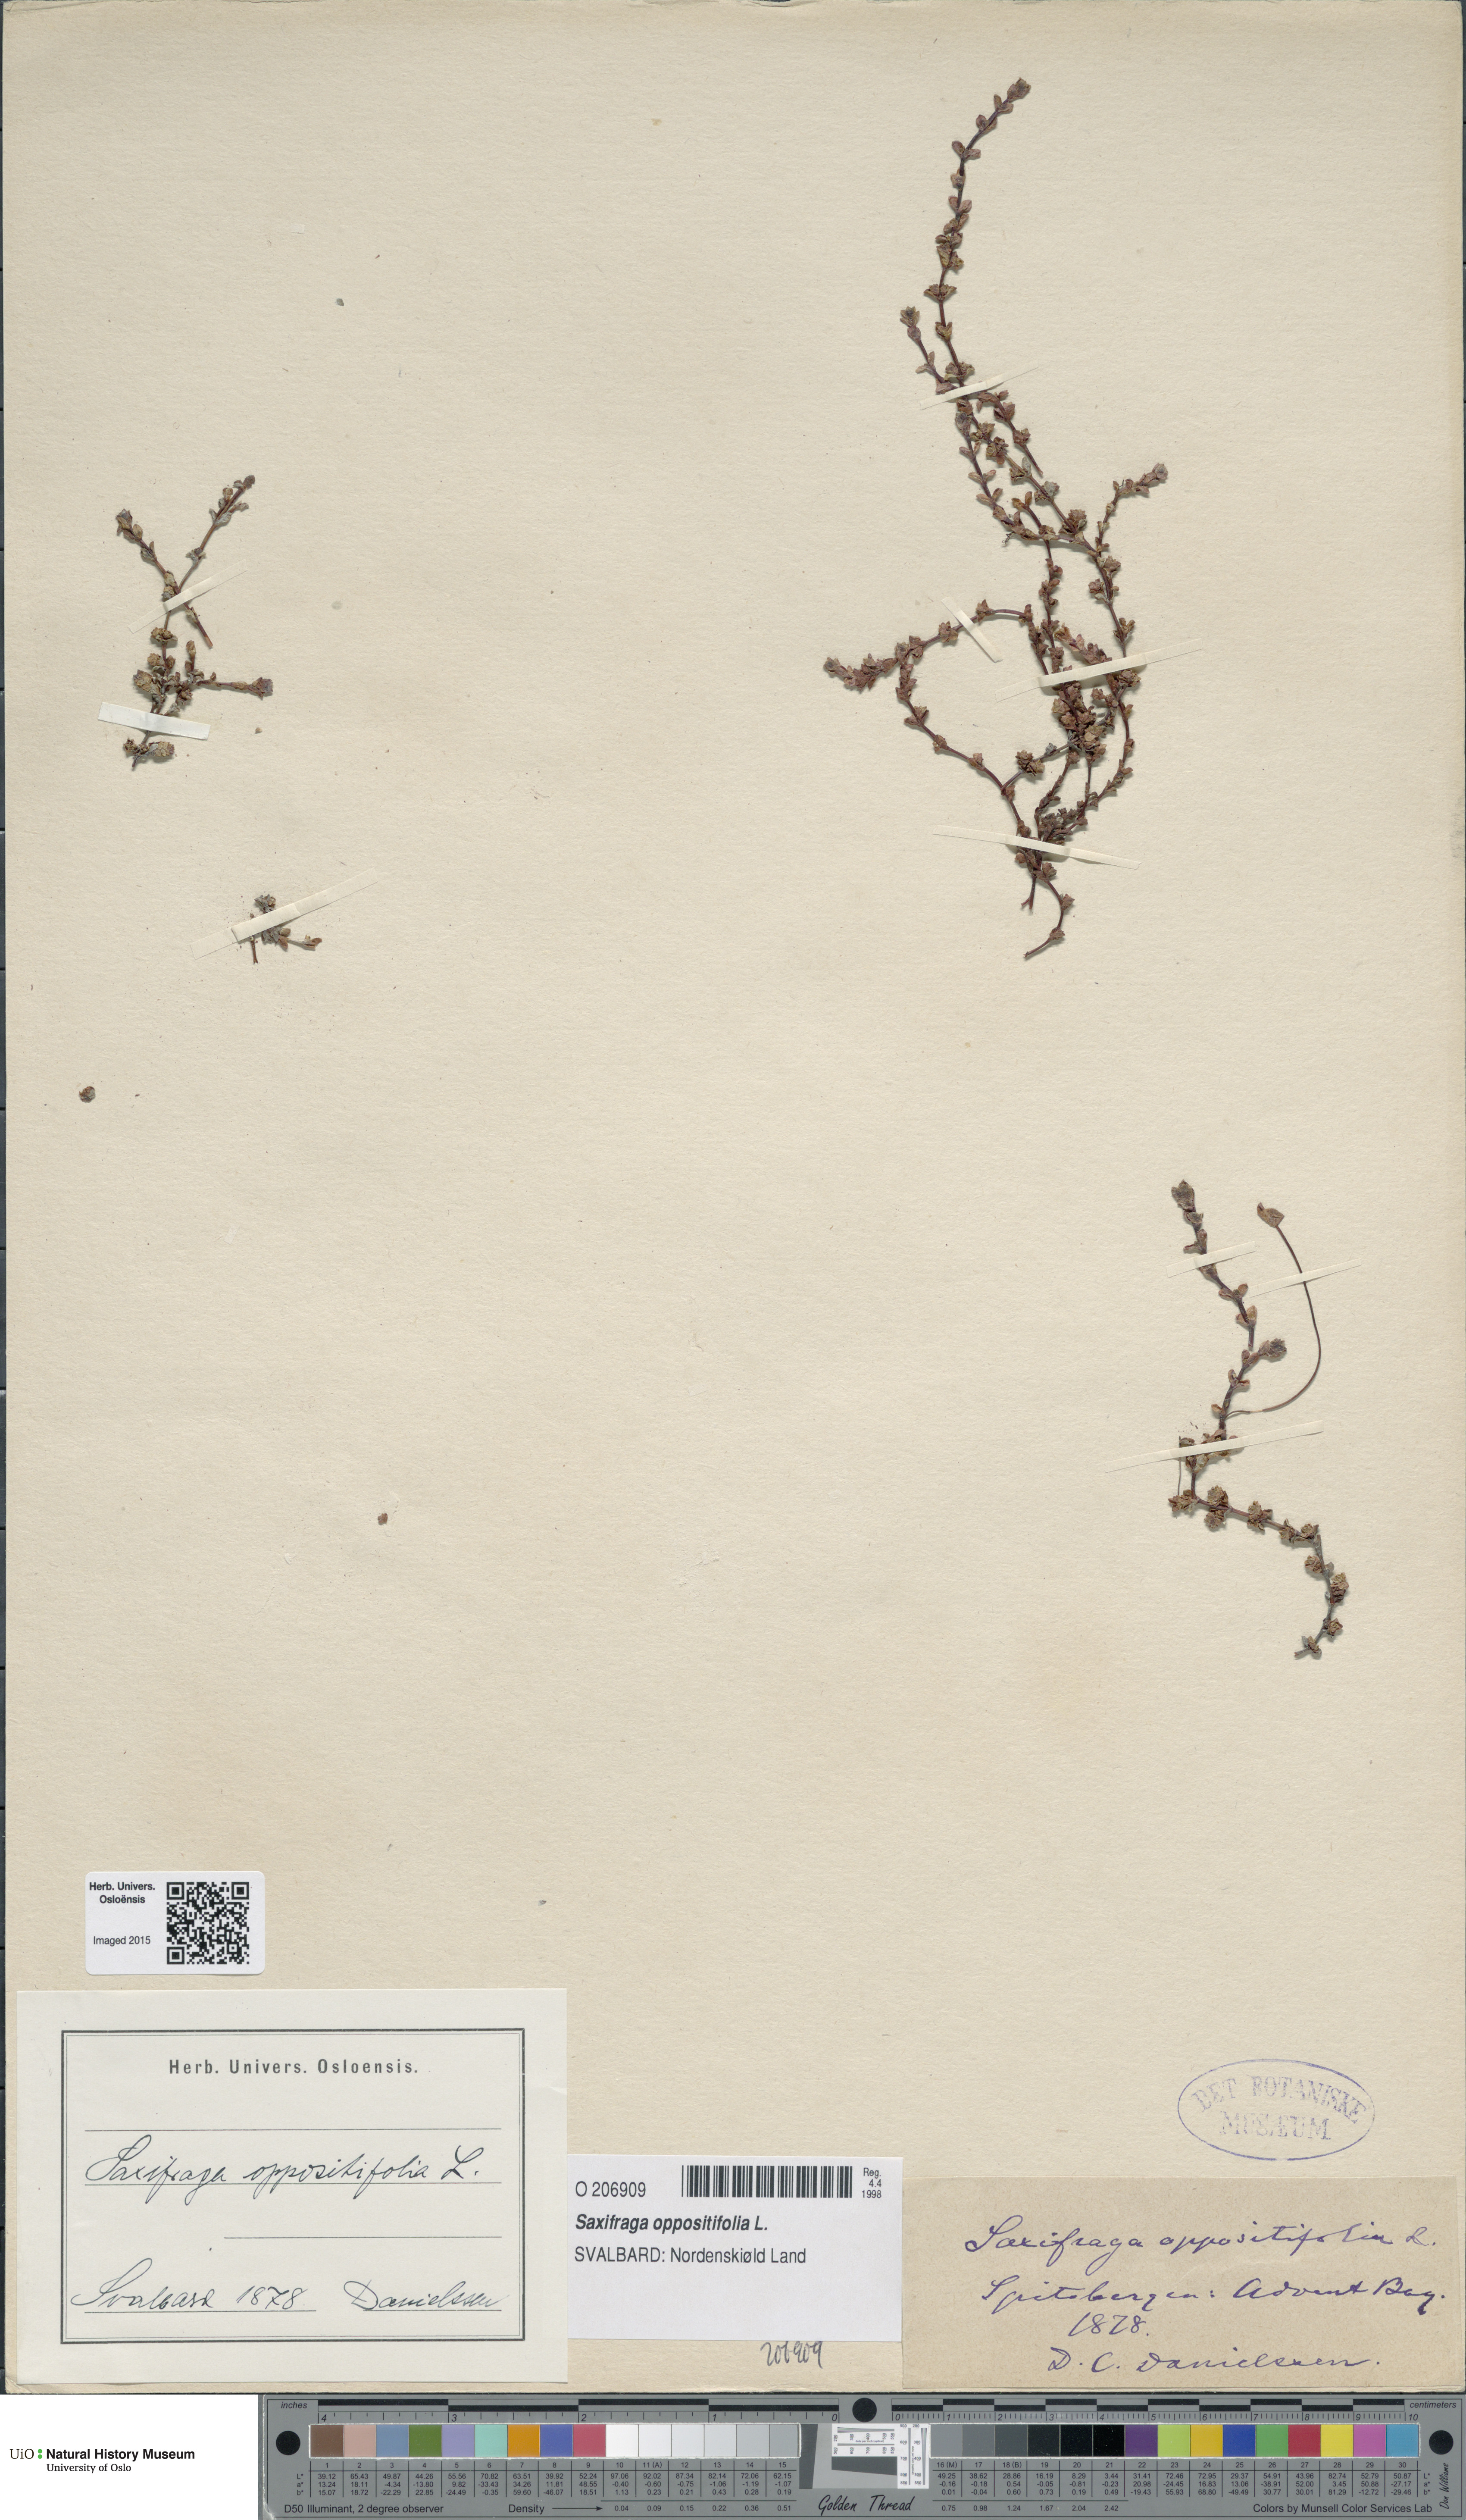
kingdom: Plantae
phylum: Tracheophyta
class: Magnoliopsida
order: Saxifragales
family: Saxifragaceae
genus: Saxifraga
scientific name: Saxifraga oppositifolia
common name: Purple saxifrage
